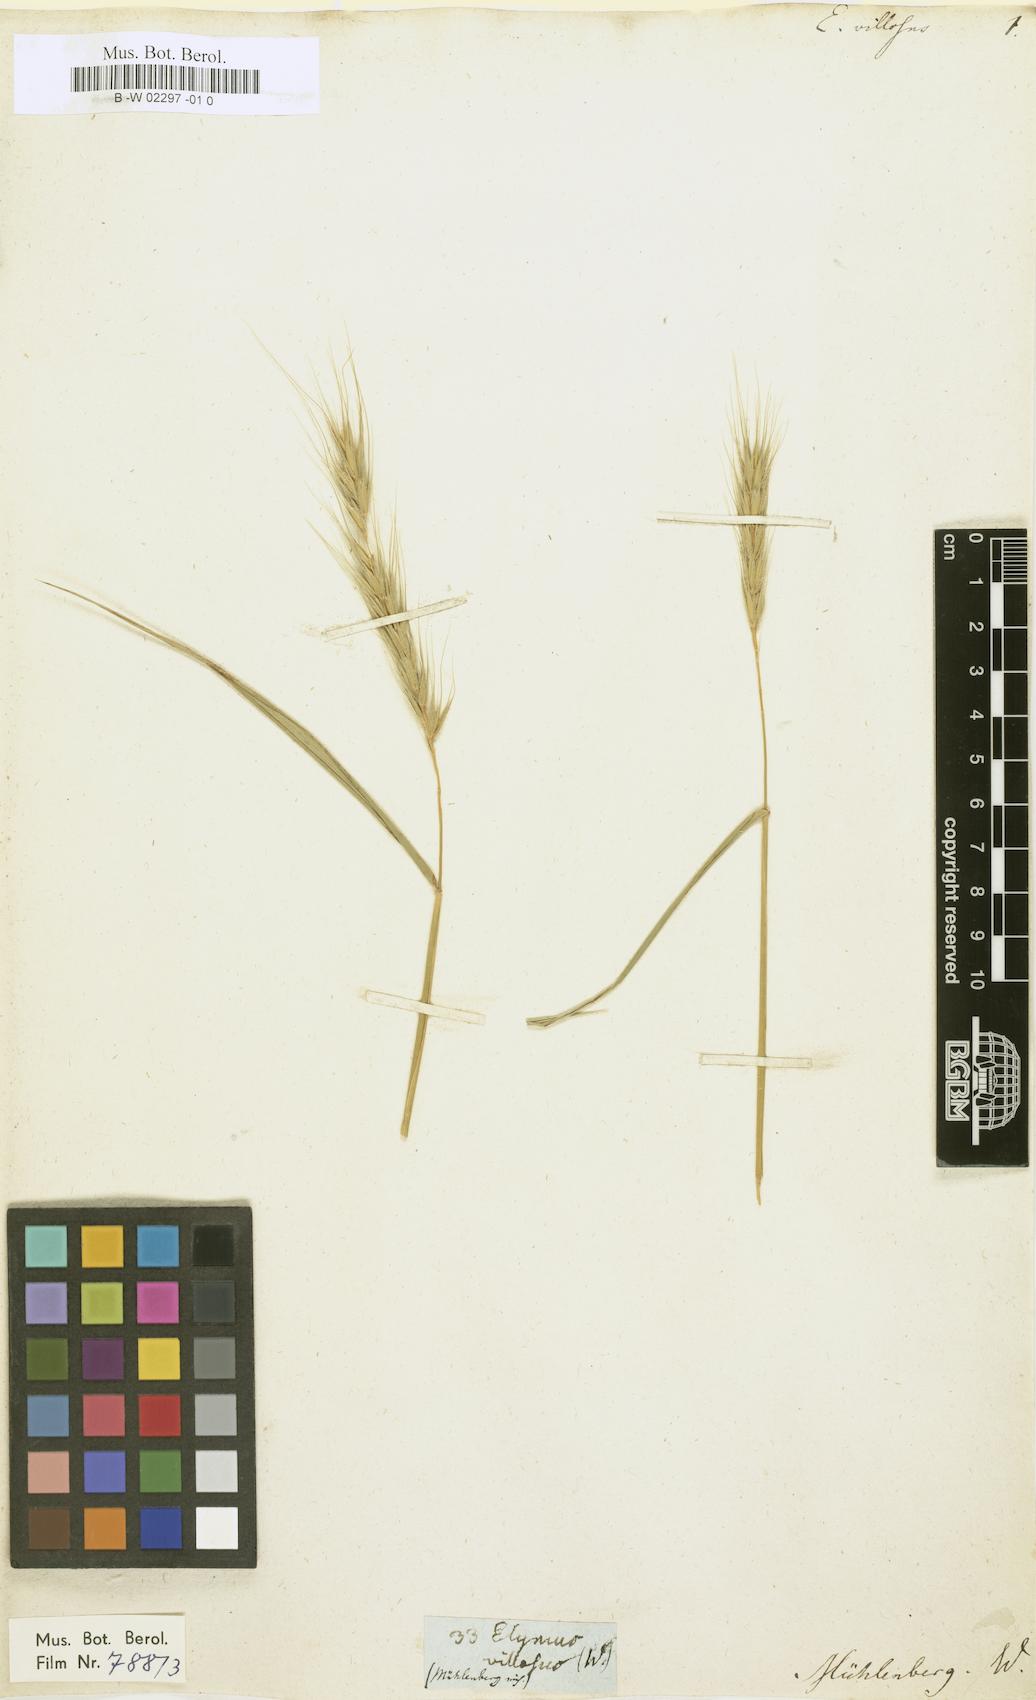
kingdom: Plantae
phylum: Tracheophyta
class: Liliopsida
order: Poales
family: Poaceae
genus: Elymus
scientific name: Elymus villosus
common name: Downy wild rye
